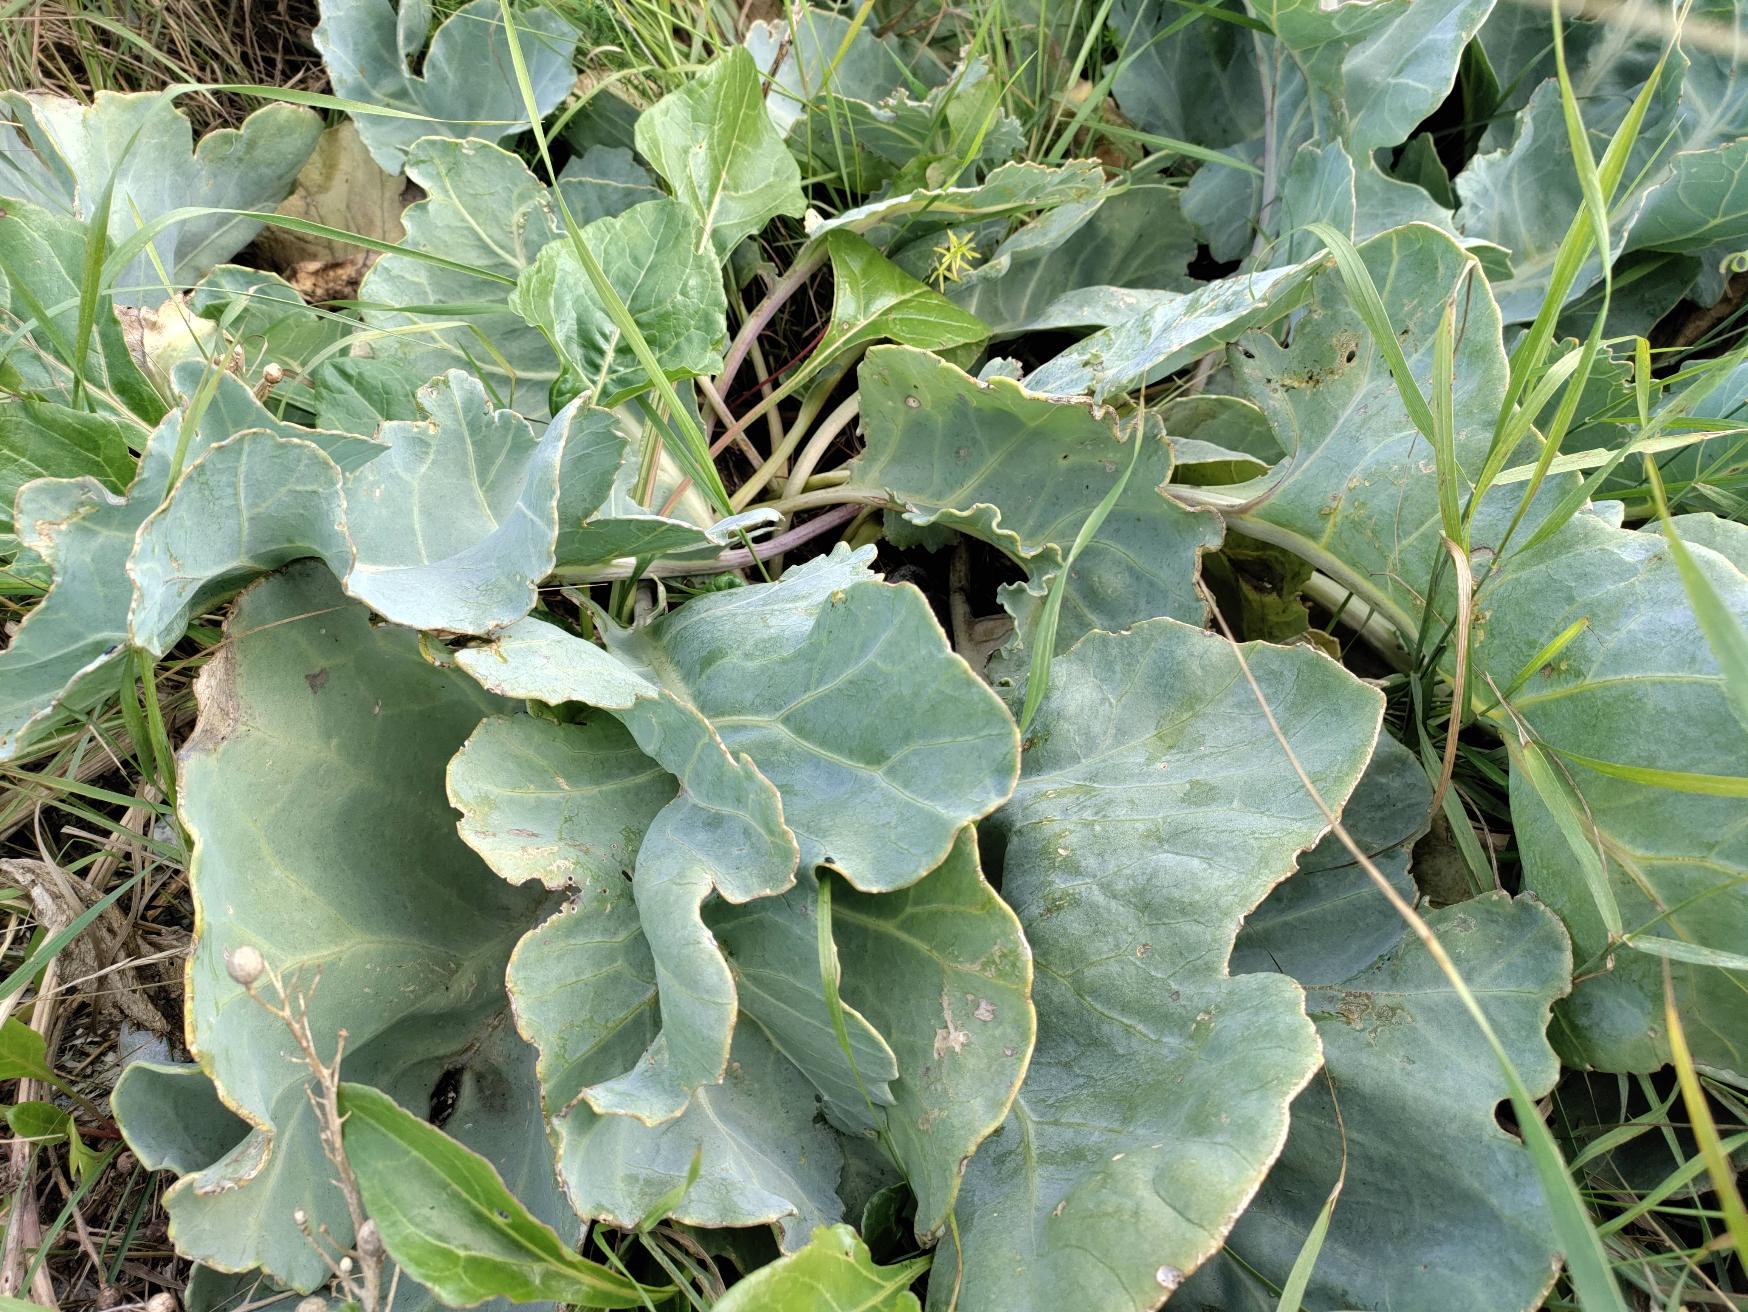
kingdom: Plantae
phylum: Tracheophyta
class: Magnoliopsida
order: Brassicales
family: Brassicaceae
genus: Crambe
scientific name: Crambe maritima
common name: Strandkål
